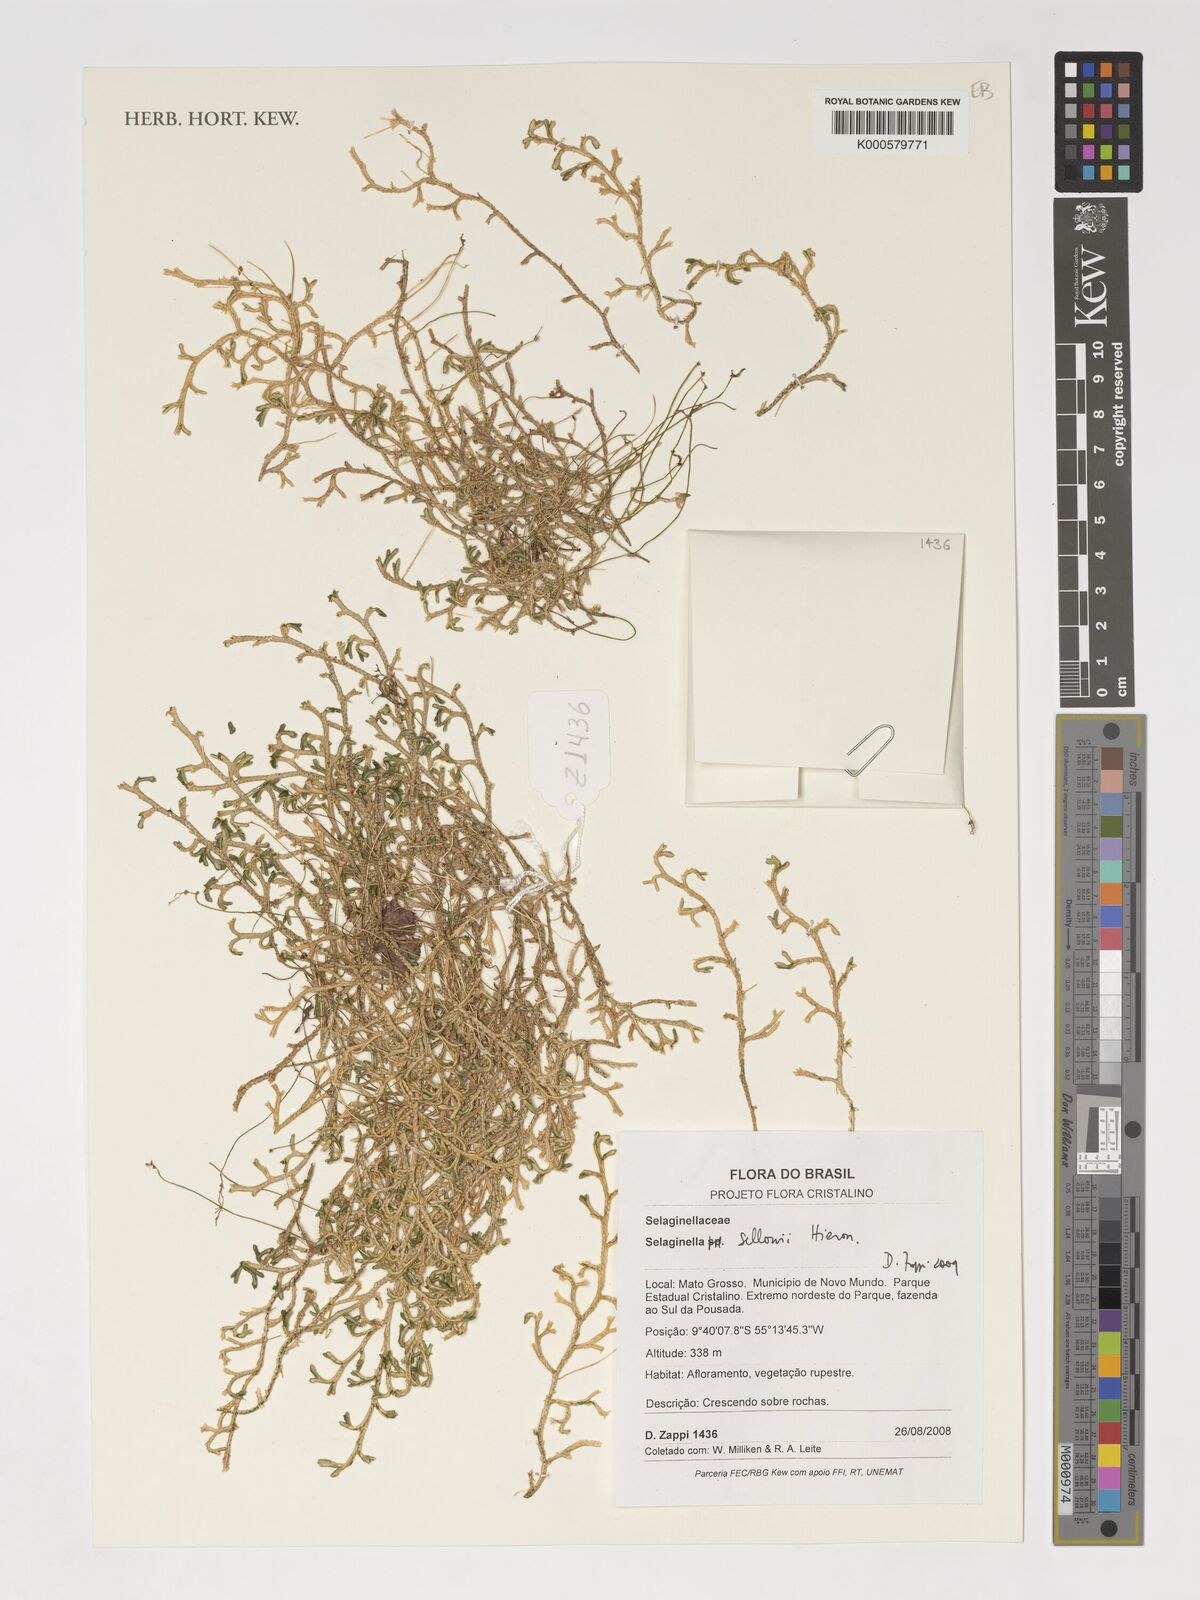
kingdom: Plantae
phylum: Tracheophyta
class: Lycopodiopsida
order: Selaginellales
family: Selaginellaceae
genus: Selaginella
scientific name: Selaginella sellowii
